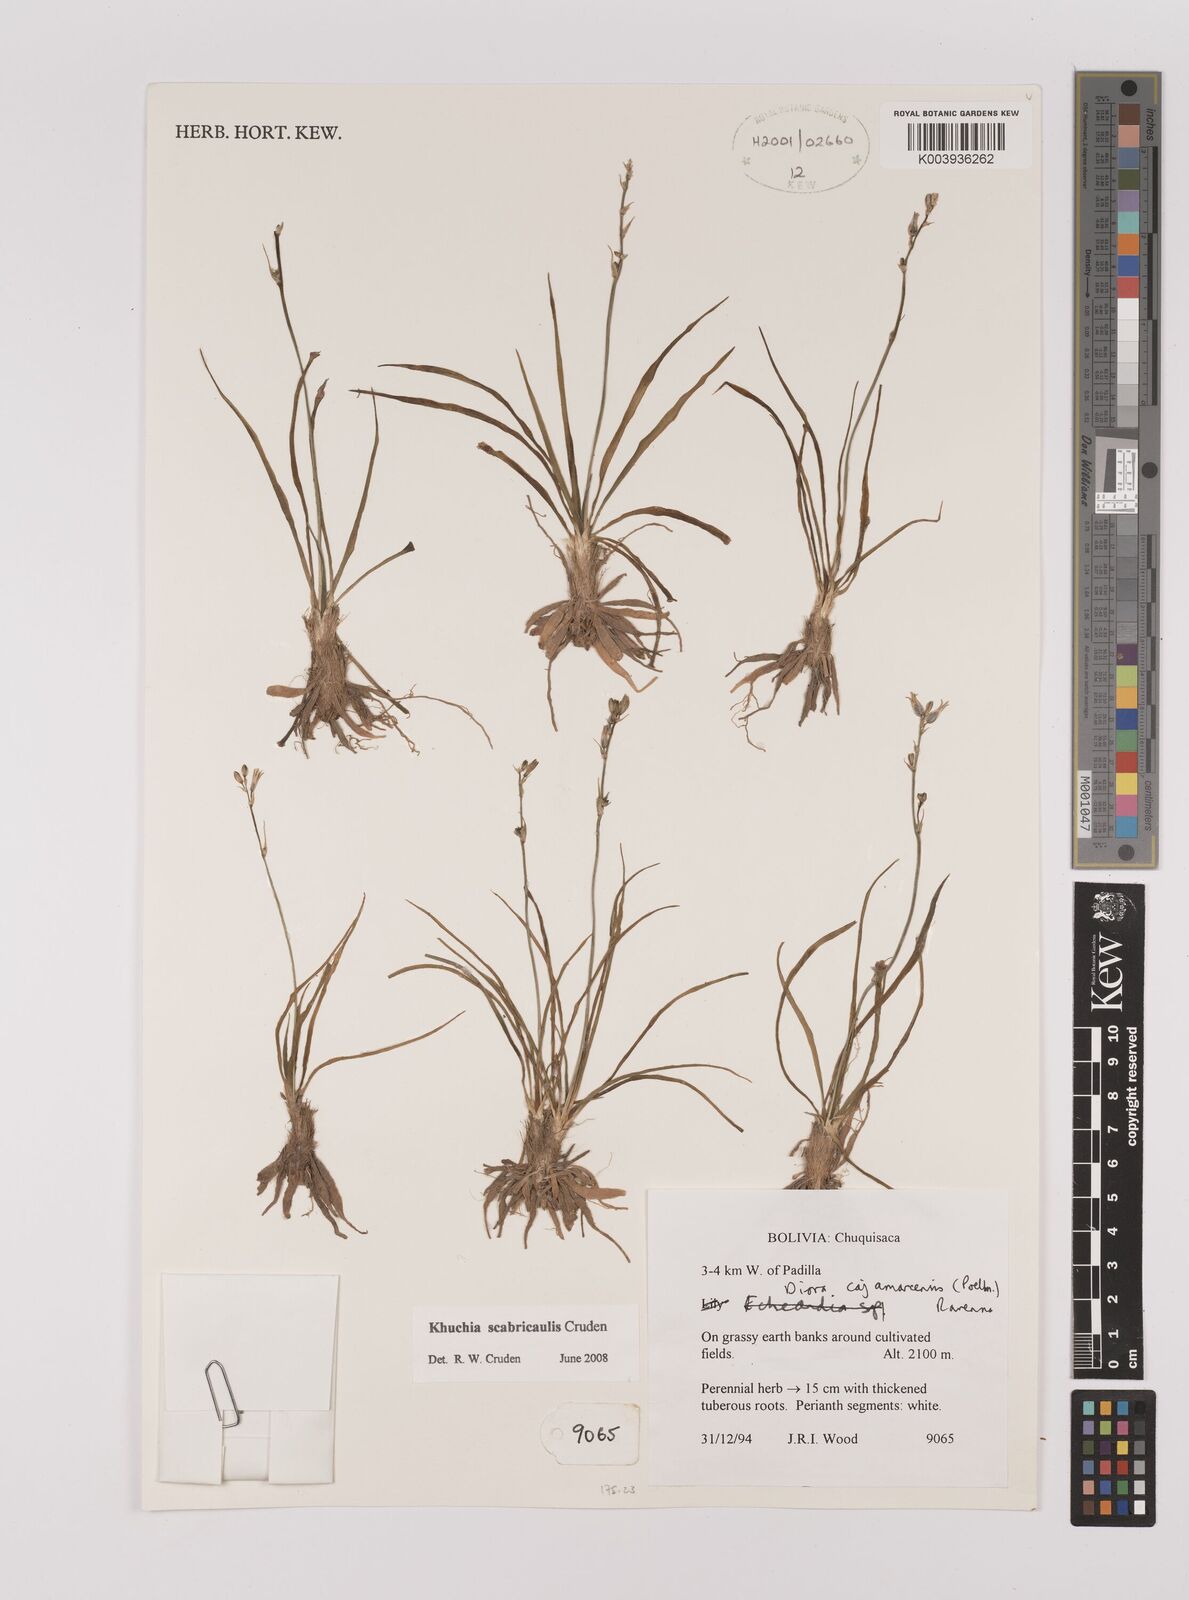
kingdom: Plantae
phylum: Tracheophyta
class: Liliopsida
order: Asparagales
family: Asparagaceae
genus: Echeandia
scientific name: Echeandia
